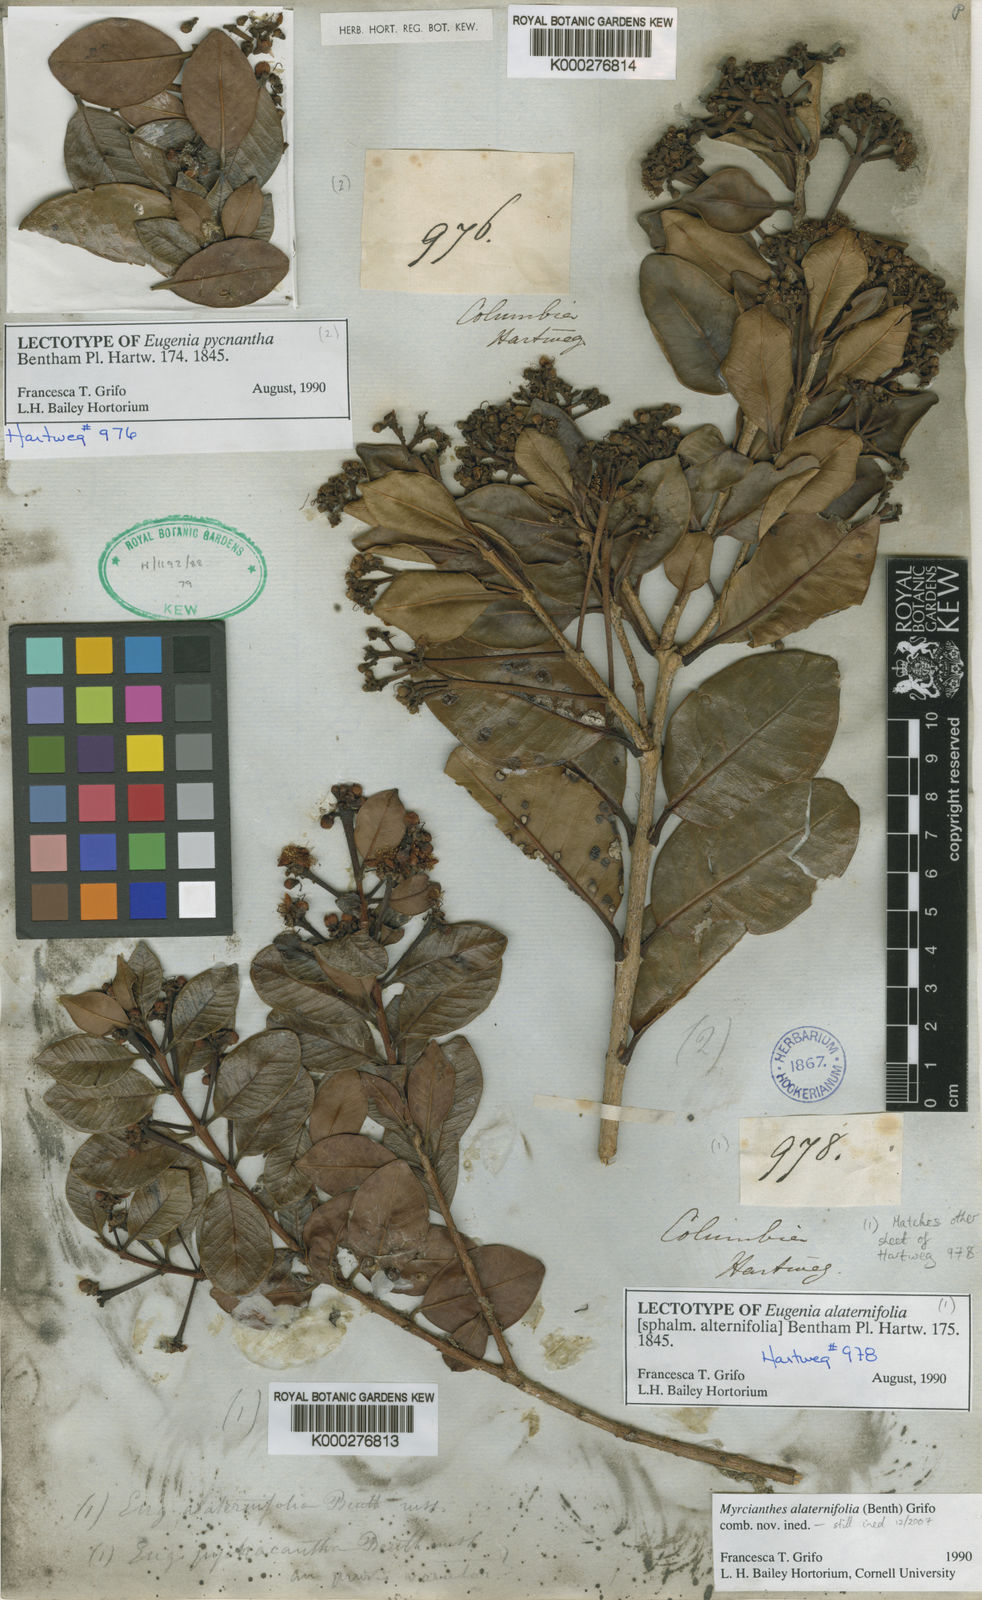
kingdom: Plantae
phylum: Tracheophyta
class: Magnoliopsida
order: Myrtales
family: Myrtaceae
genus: Myrcianthes
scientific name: Myrcianthes
